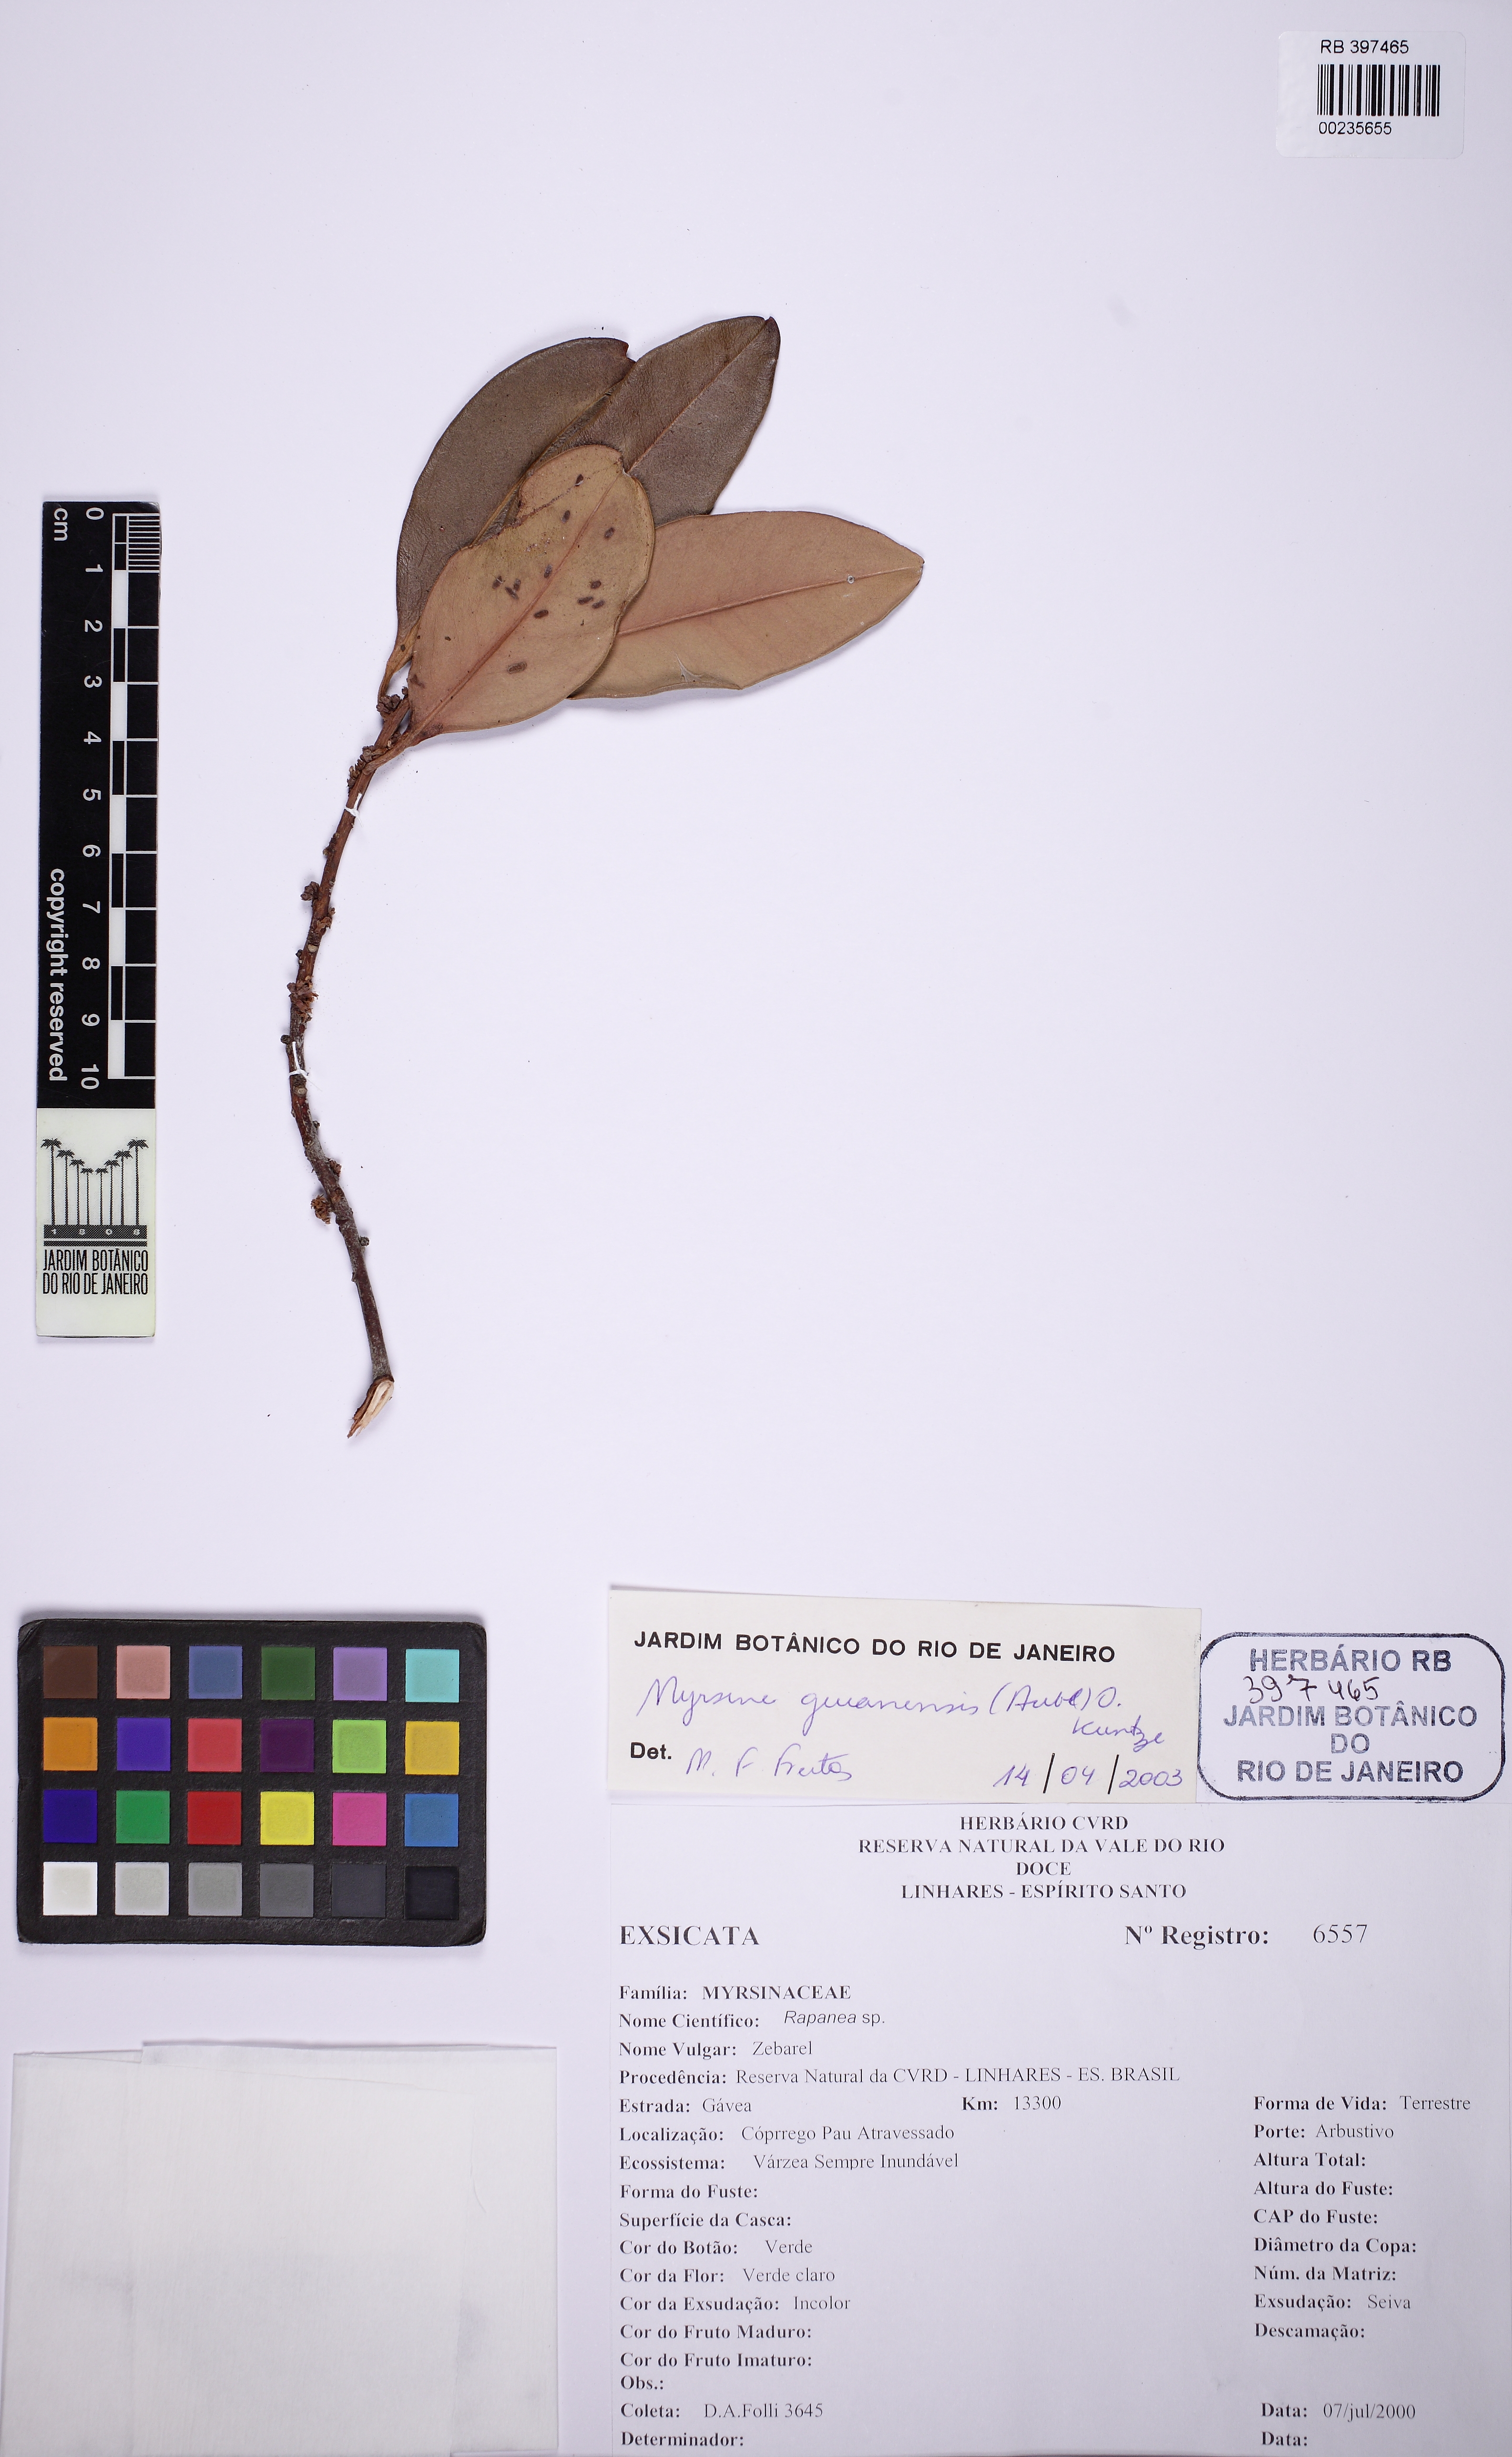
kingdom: Plantae
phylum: Tracheophyta
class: Magnoliopsida
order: Ericales
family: Primulaceae
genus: Myrsine
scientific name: Myrsine guianensis
